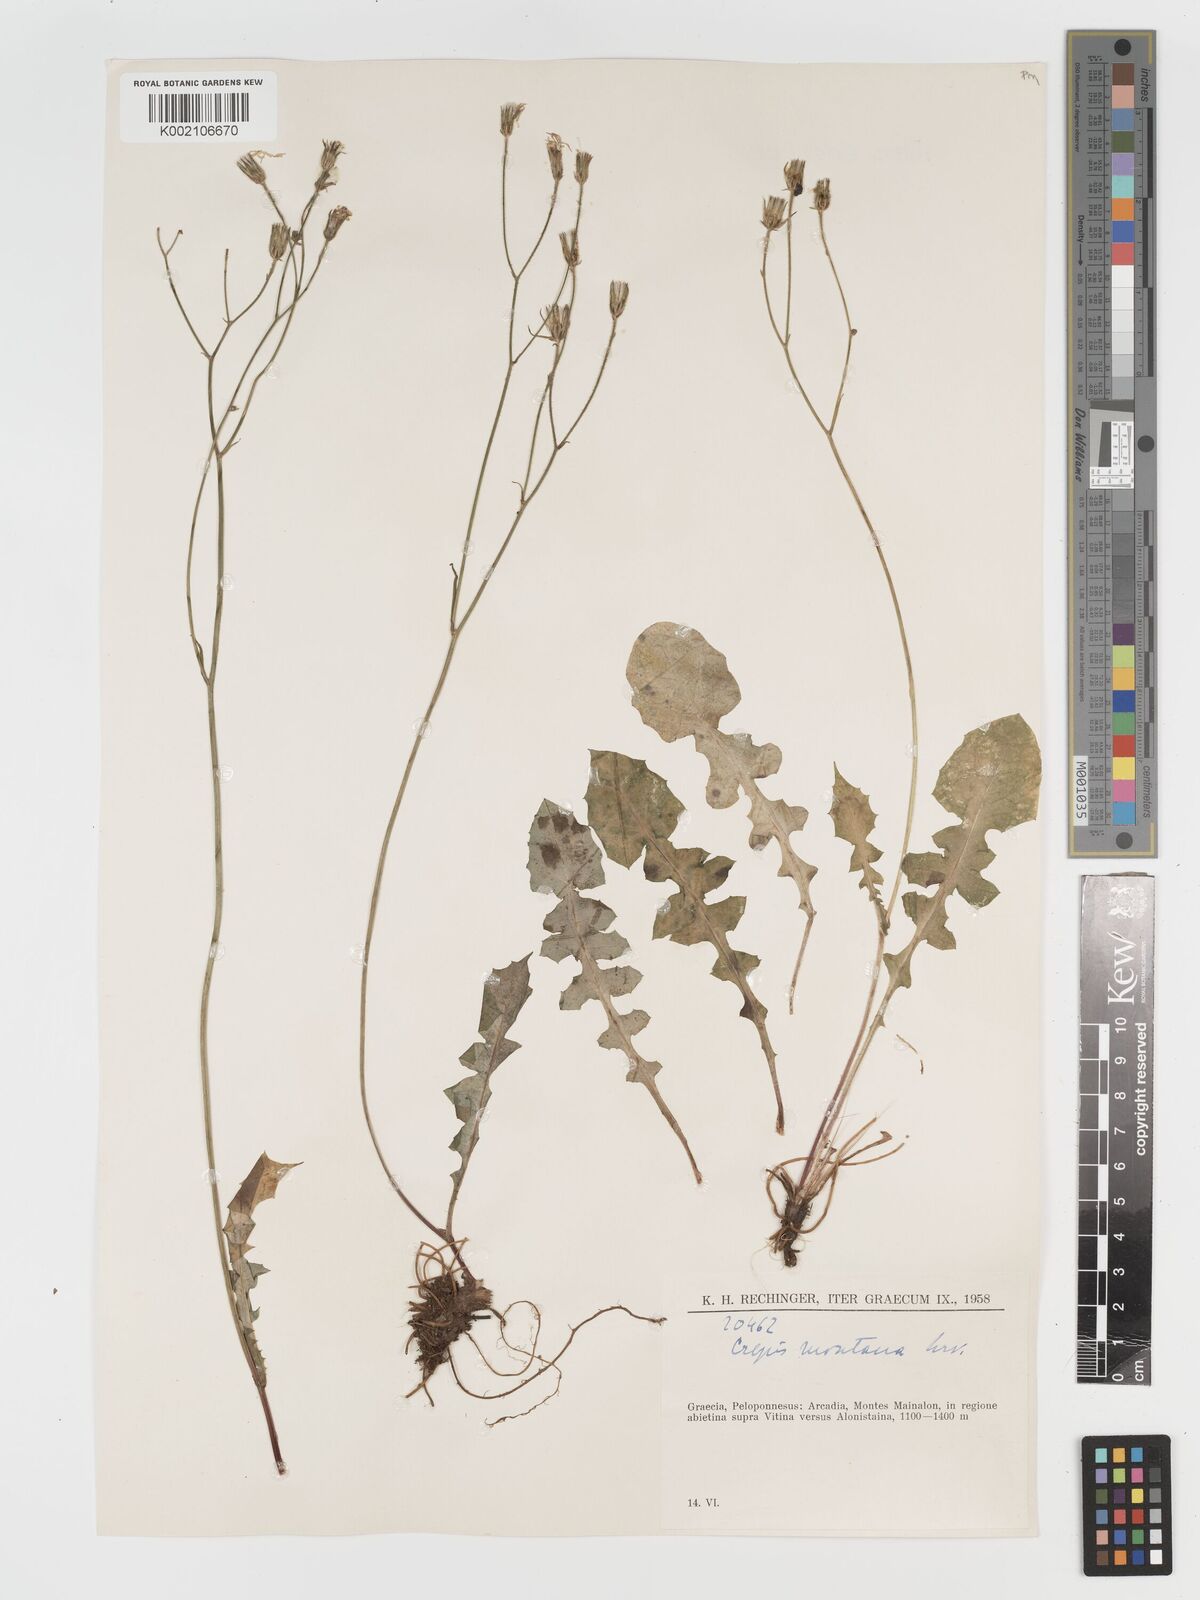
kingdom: Plantae
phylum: Tracheophyta
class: Magnoliopsida
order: Asterales
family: Asteraceae
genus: Crepis
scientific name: Crepis
